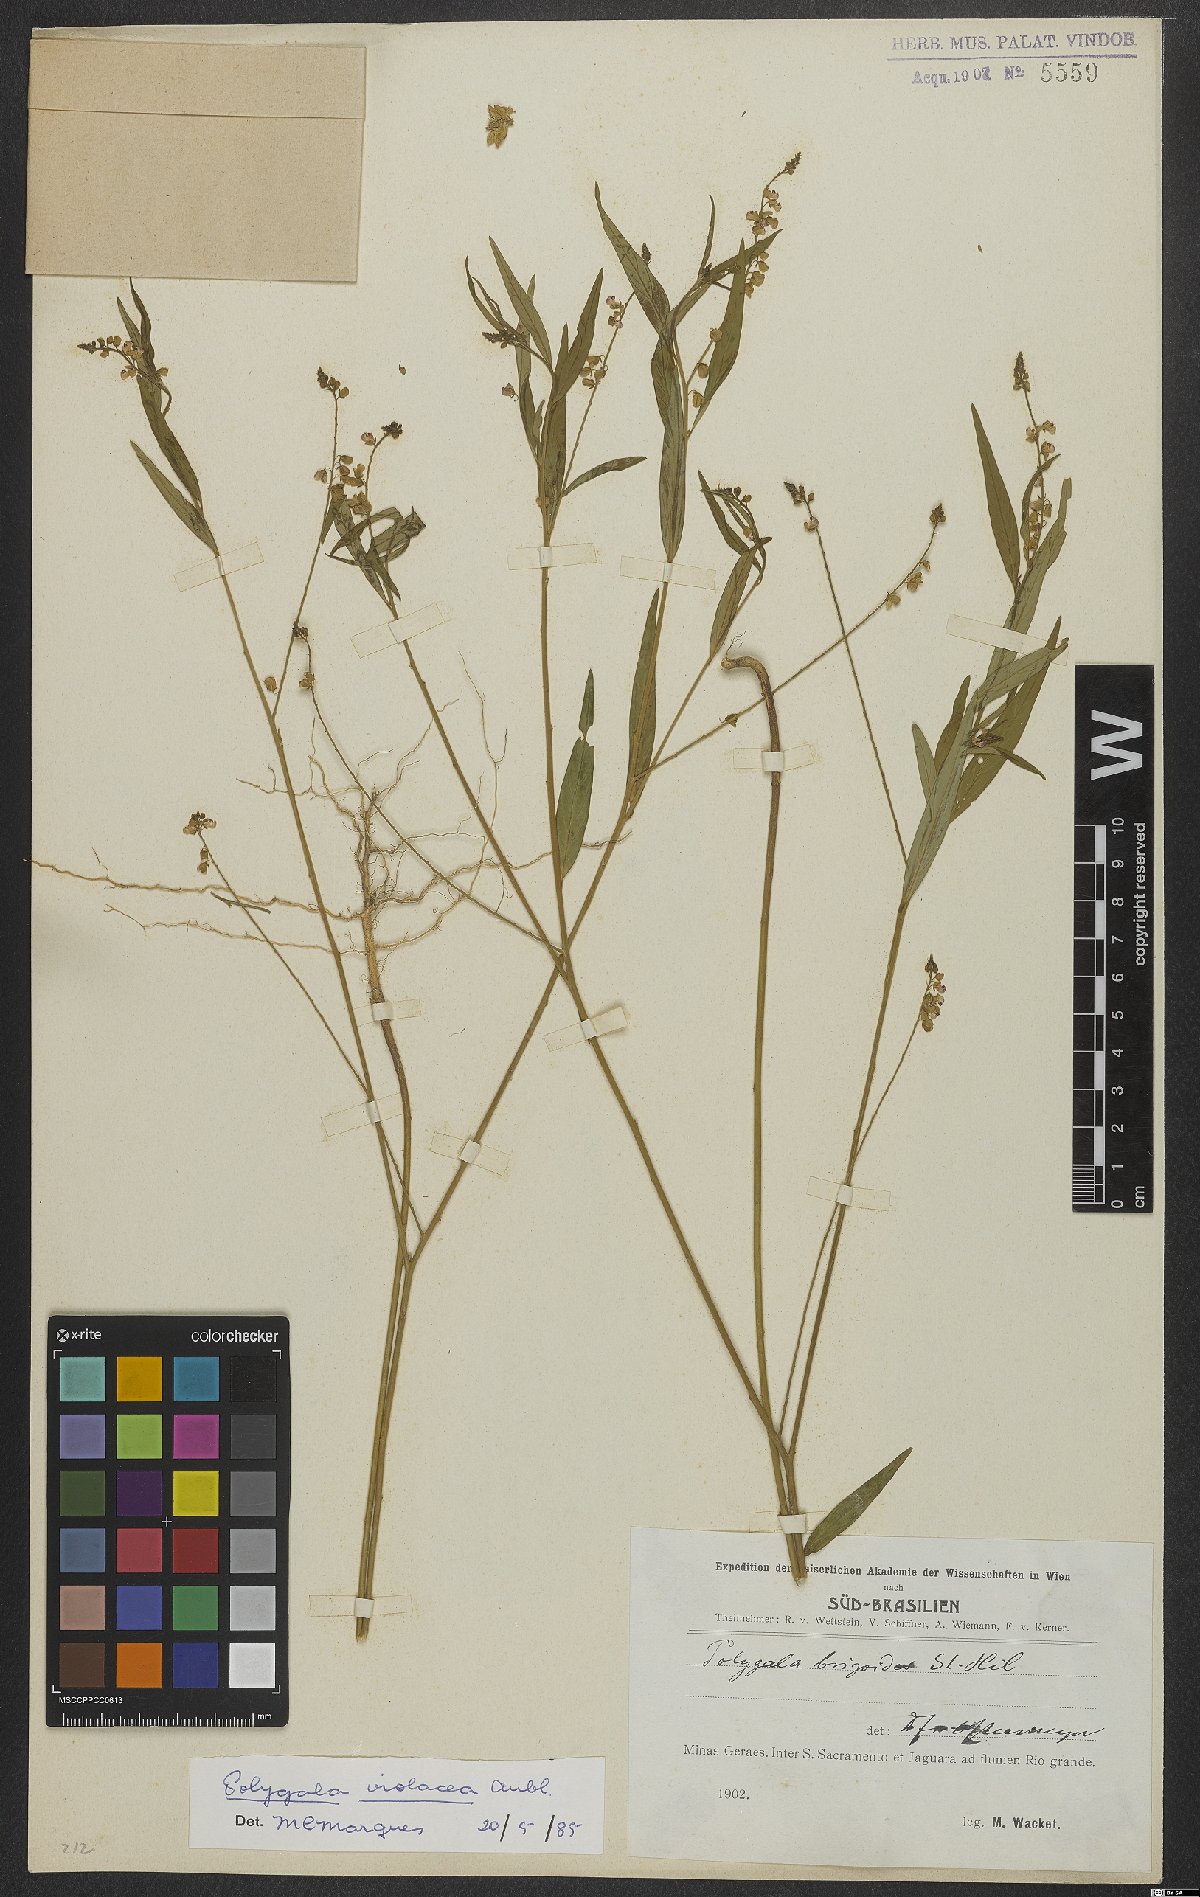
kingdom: Plantae
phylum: Tracheophyta
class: Magnoliopsida
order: Fabales
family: Polygalaceae
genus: Asemeia
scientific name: Asemeia violacea
